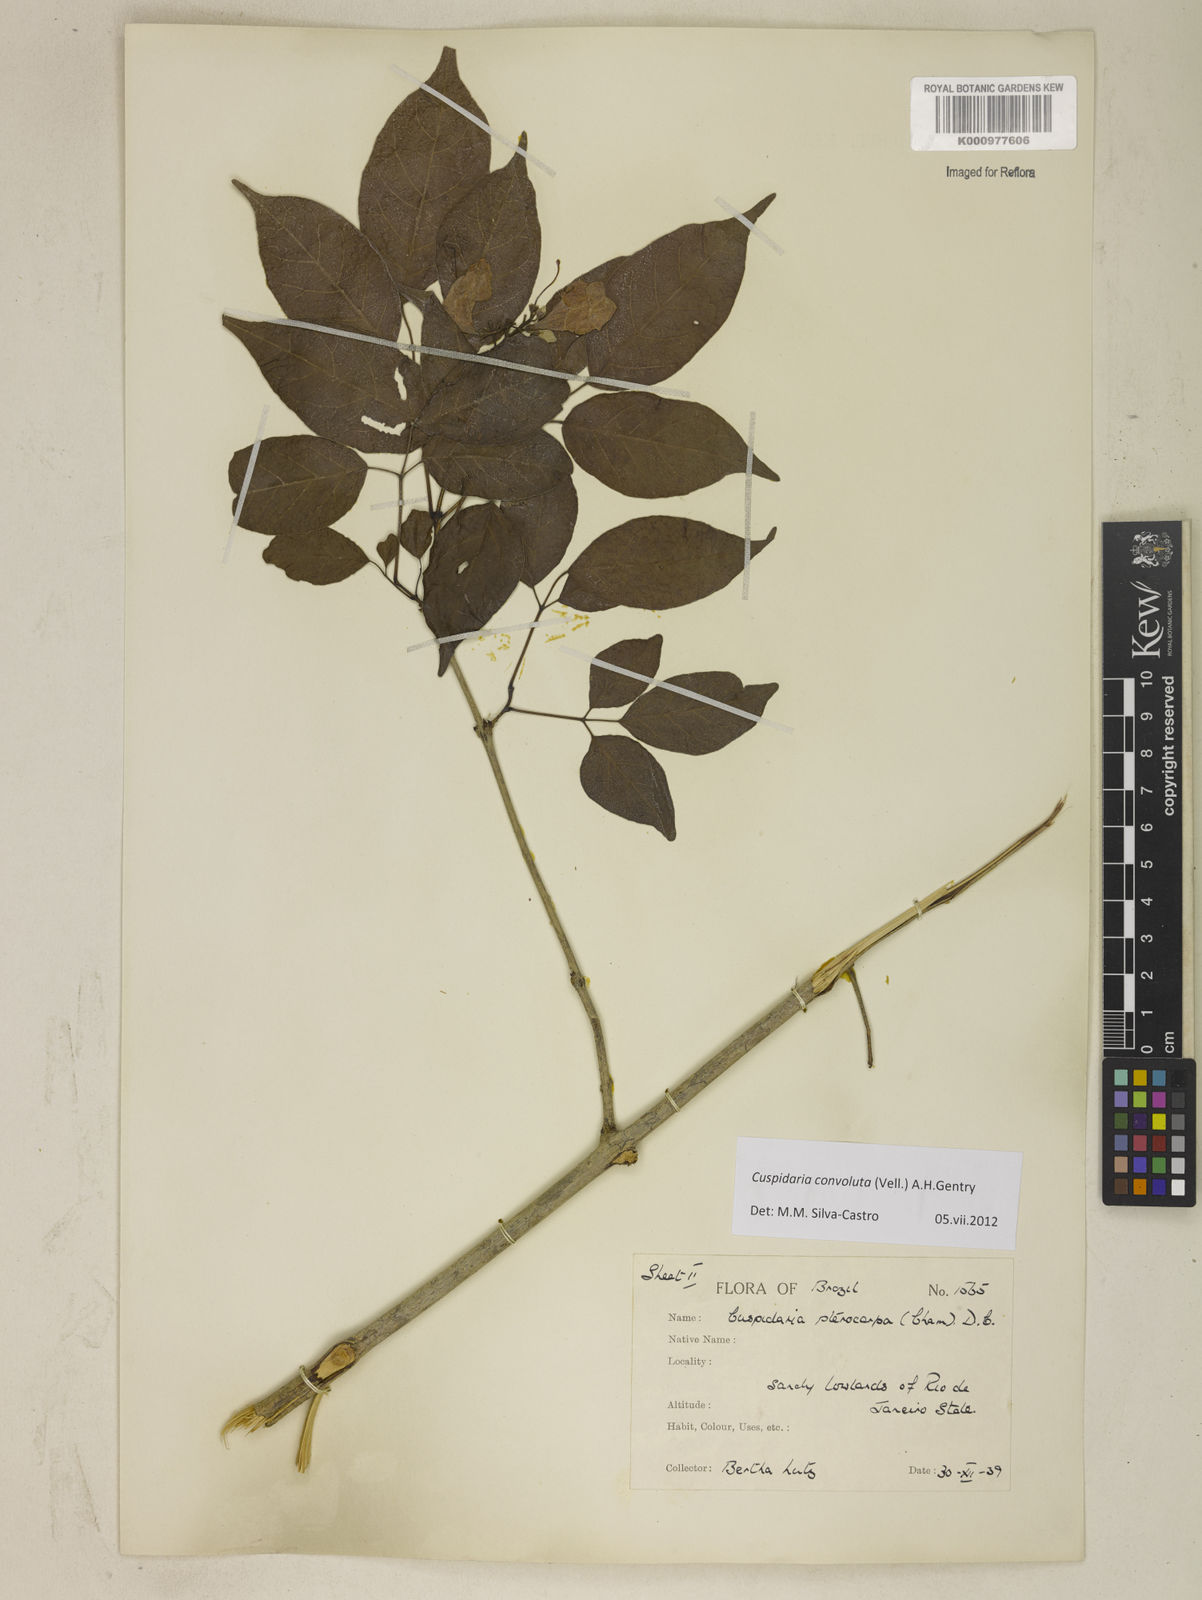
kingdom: Plantae
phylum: Tracheophyta
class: Magnoliopsida
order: Lamiales
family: Bignoniaceae
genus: Cuspidaria
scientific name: Cuspidaria convoluta
